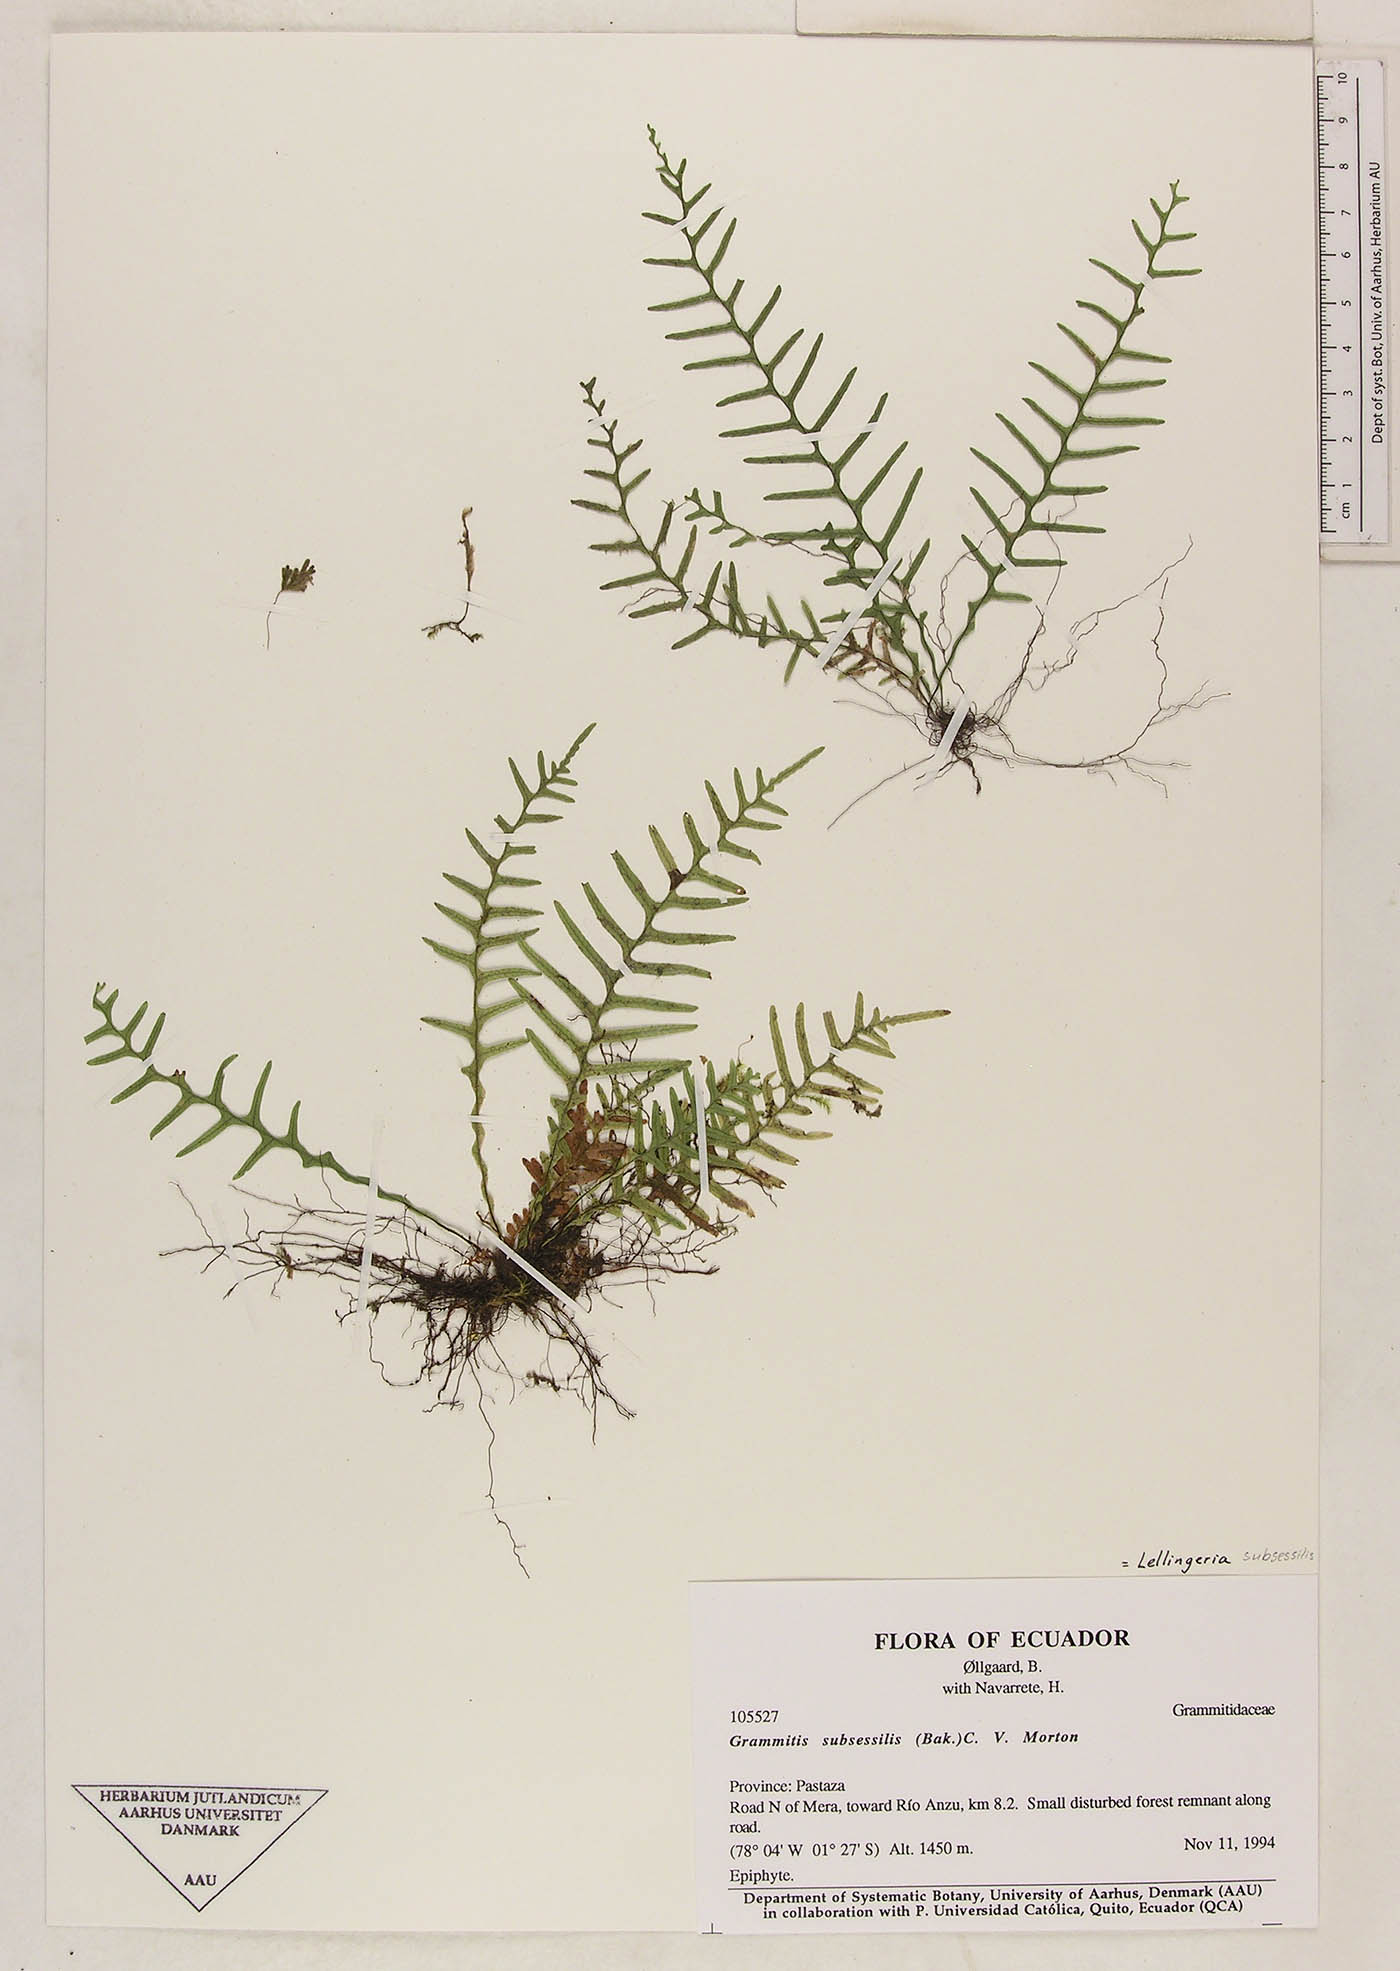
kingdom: Plantae
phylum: Tracheophyta
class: Polypodiopsida
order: Polypodiales
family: Polypodiaceae
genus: Lellingeria
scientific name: Lellingeria subsessilis
